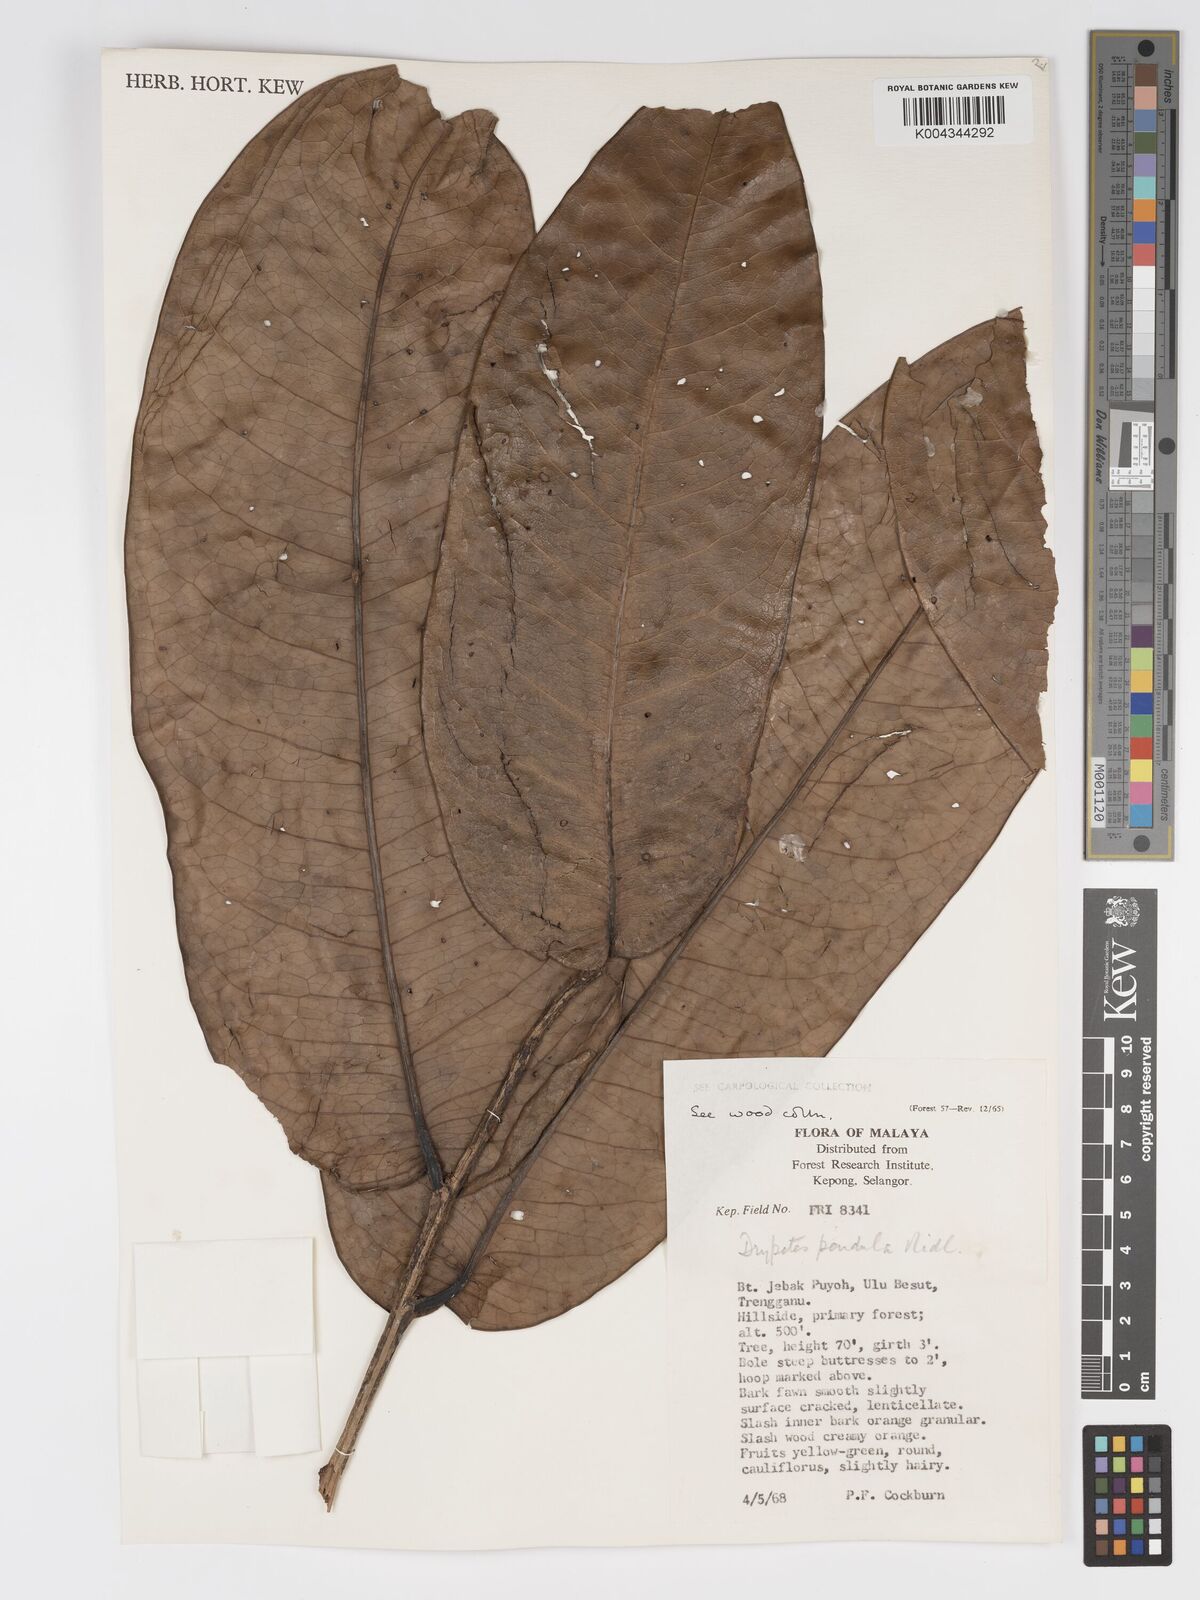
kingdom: Plantae
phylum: Tracheophyta
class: Magnoliopsida
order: Malpighiales
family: Putranjivaceae
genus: Drypetes
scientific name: Drypetes pendula
